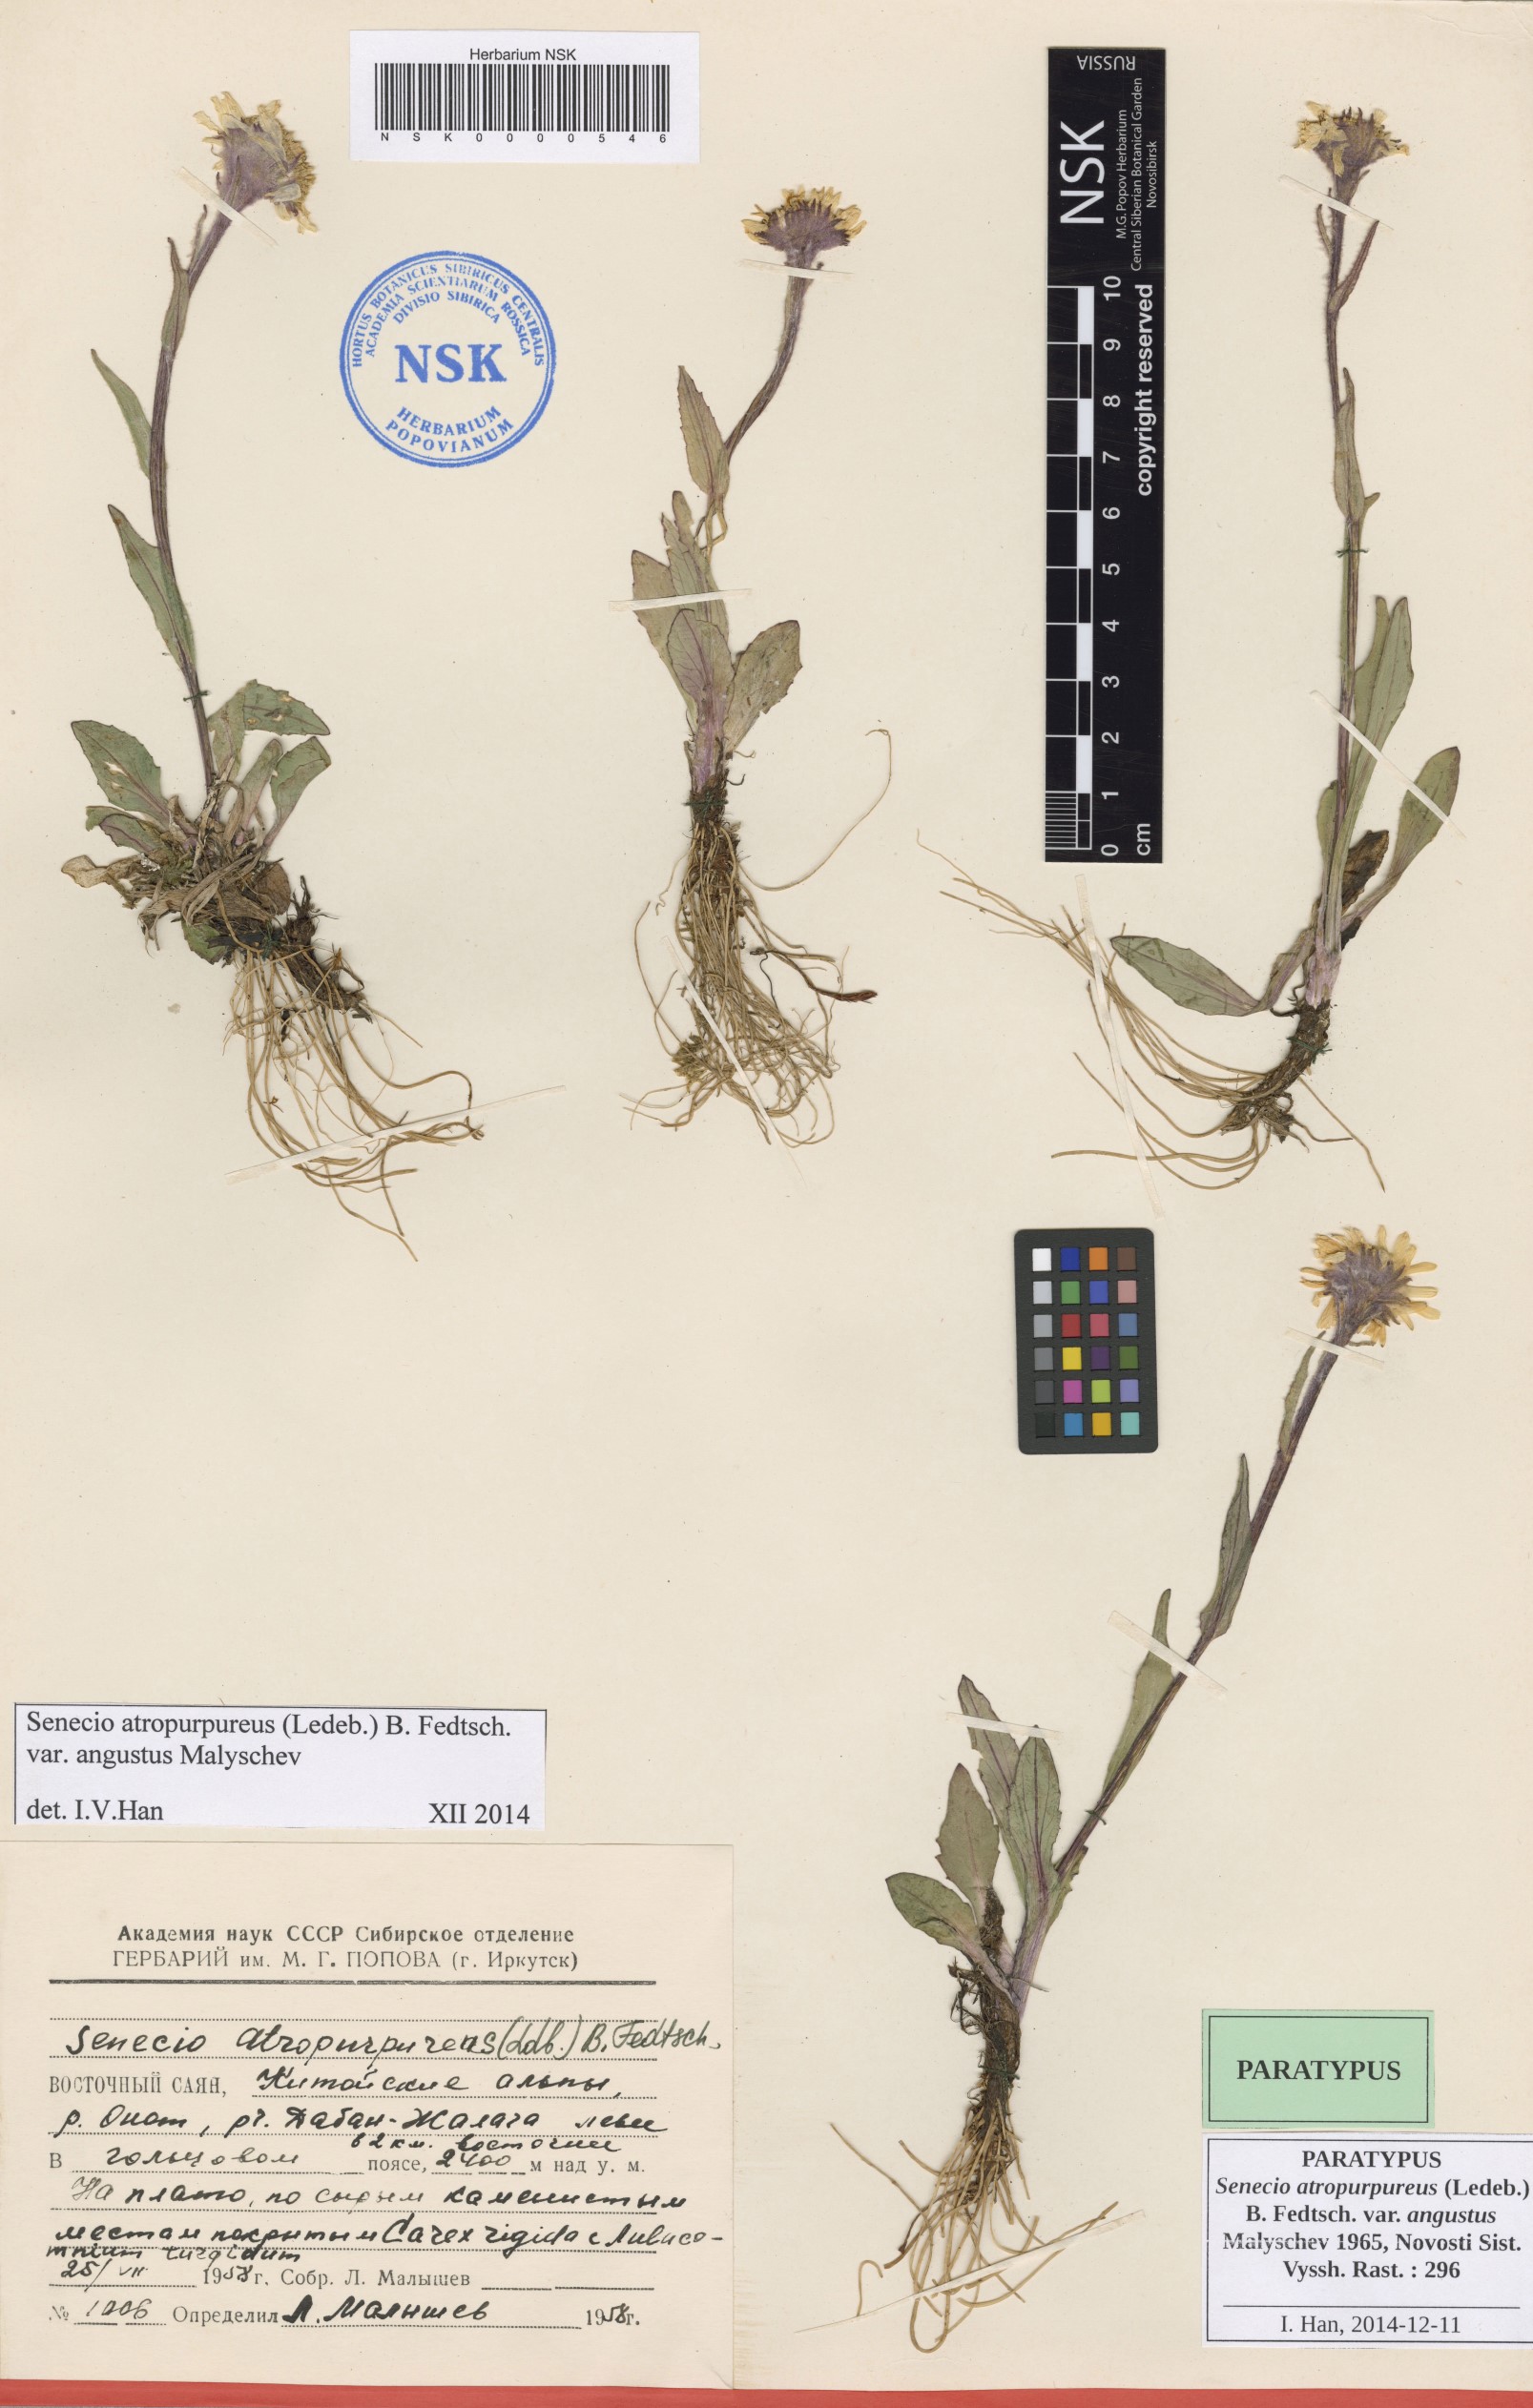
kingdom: Plantae
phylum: Tracheophyta
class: Magnoliopsida
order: Asterales
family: Asteraceae
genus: Tephroseris
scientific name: Tephroseris integrifolia
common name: Field fleawort
